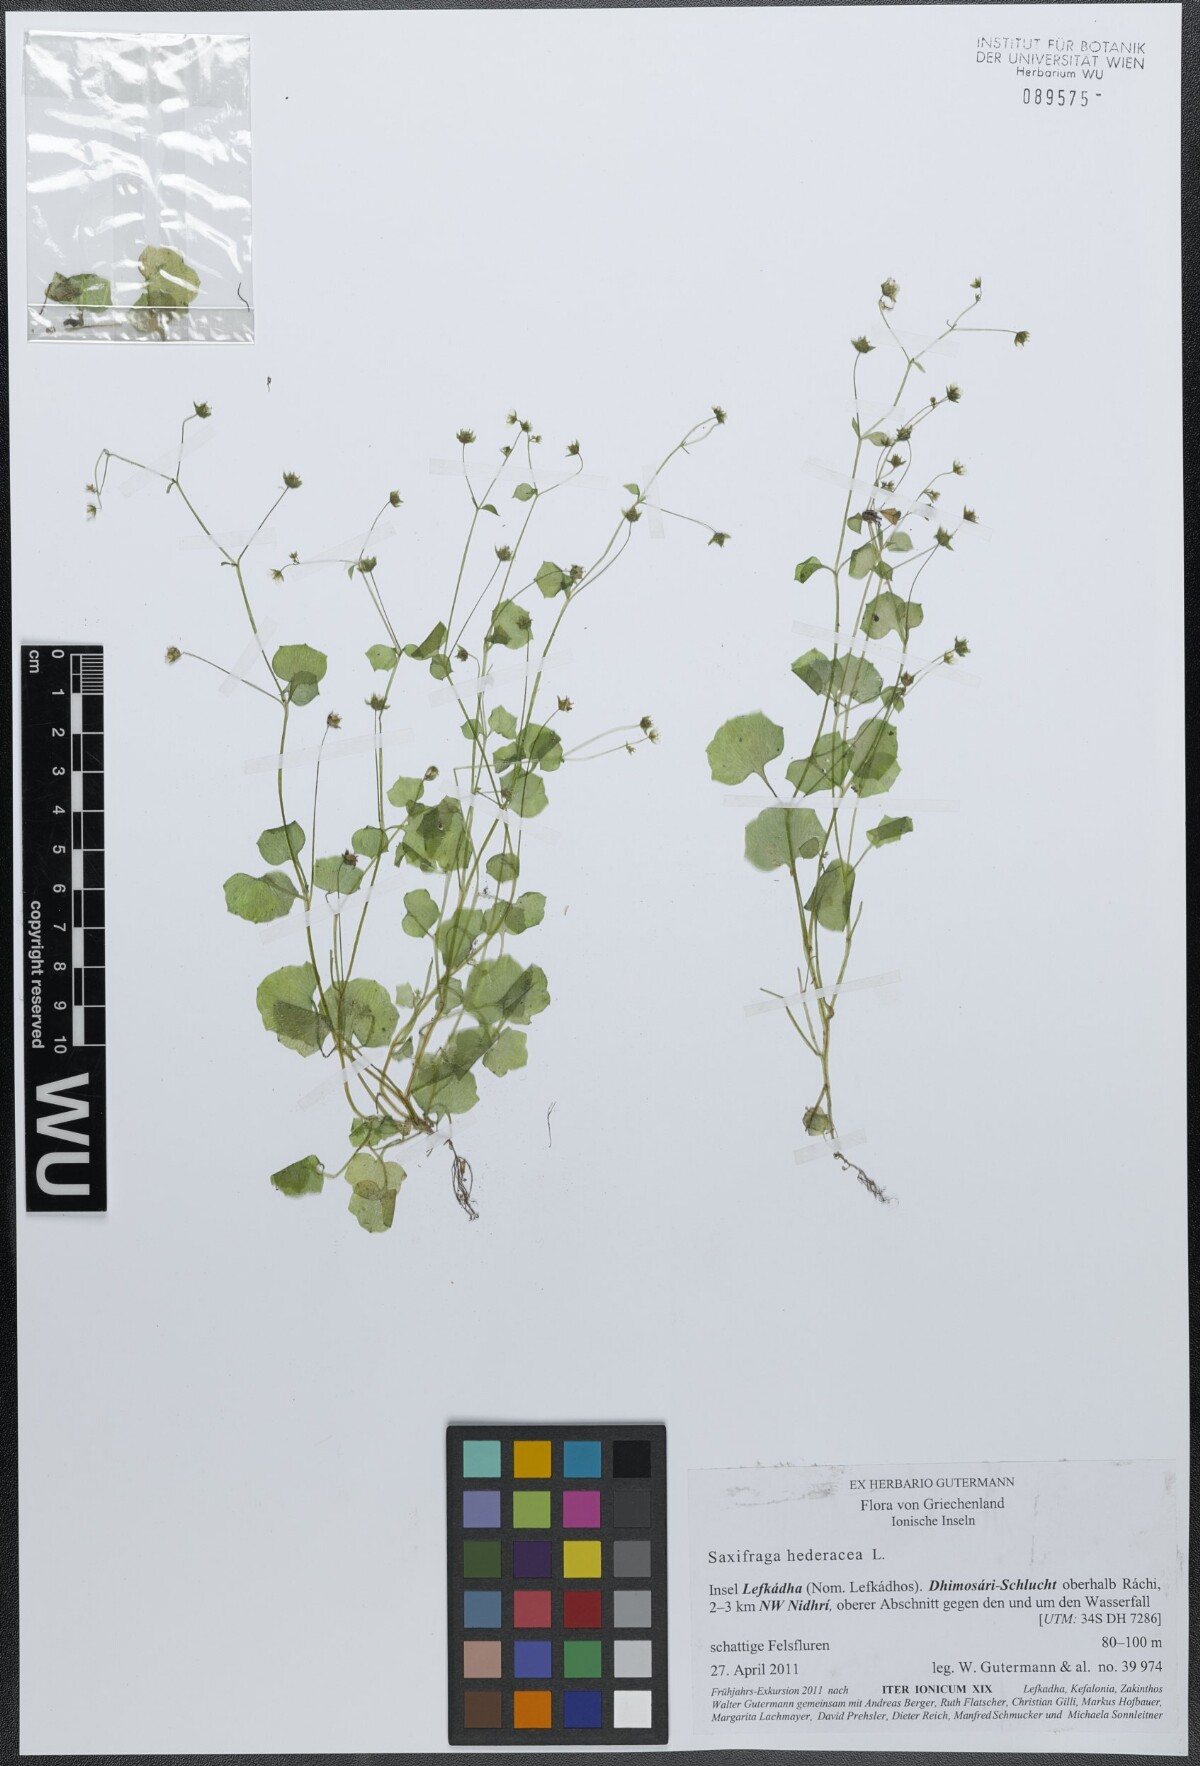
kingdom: Plantae
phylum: Tracheophyta
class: Magnoliopsida
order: Saxifragales
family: Saxifragaceae
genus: Saxifraga
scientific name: Saxifraga hederacea
